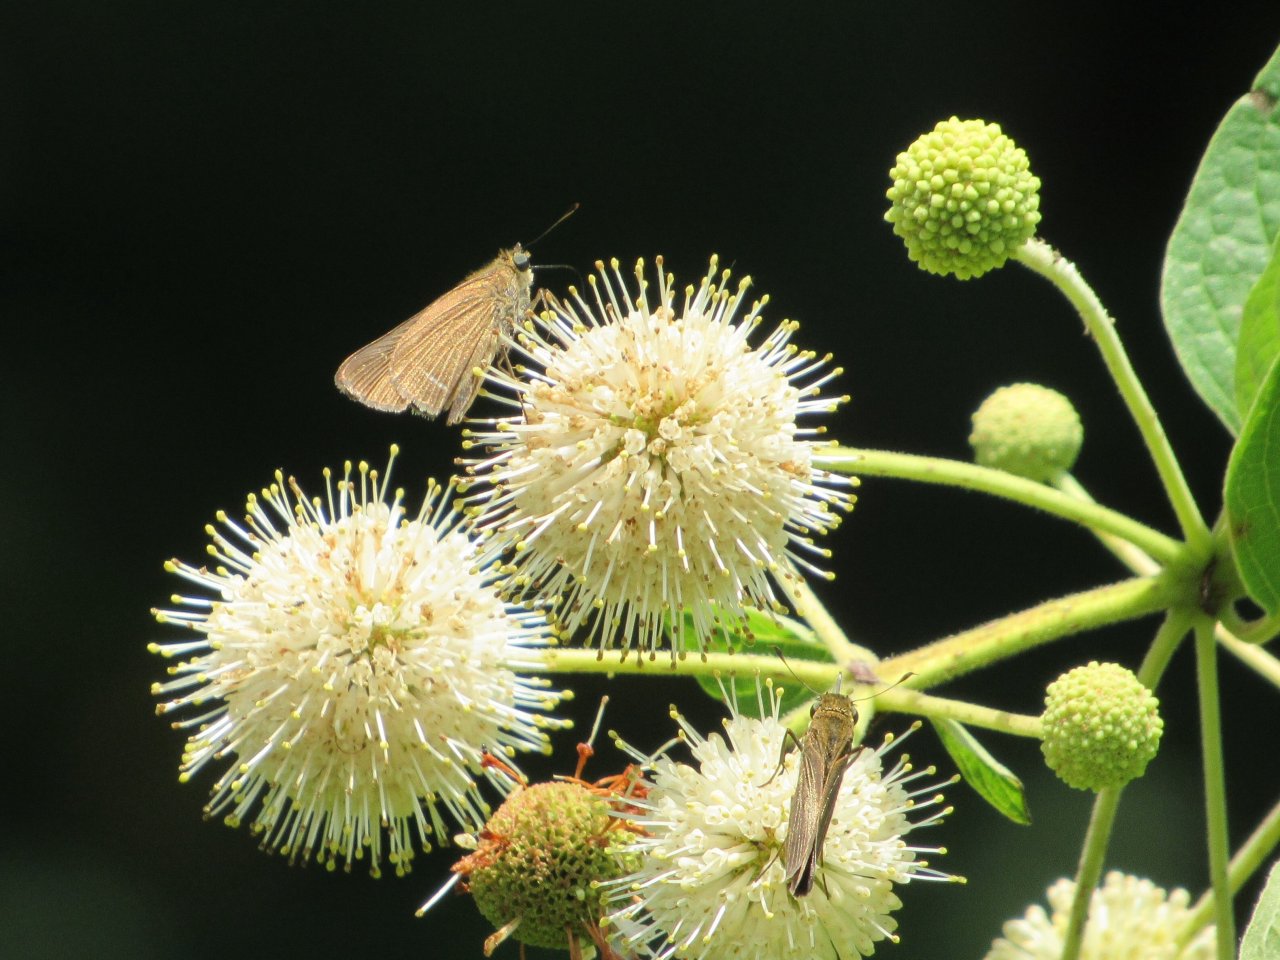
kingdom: Animalia
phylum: Arthropoda
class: Insecta
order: Lepidoptera
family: Hesperiidae
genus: Panoquina
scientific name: Panoquina ocola
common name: Ocola Skipper
